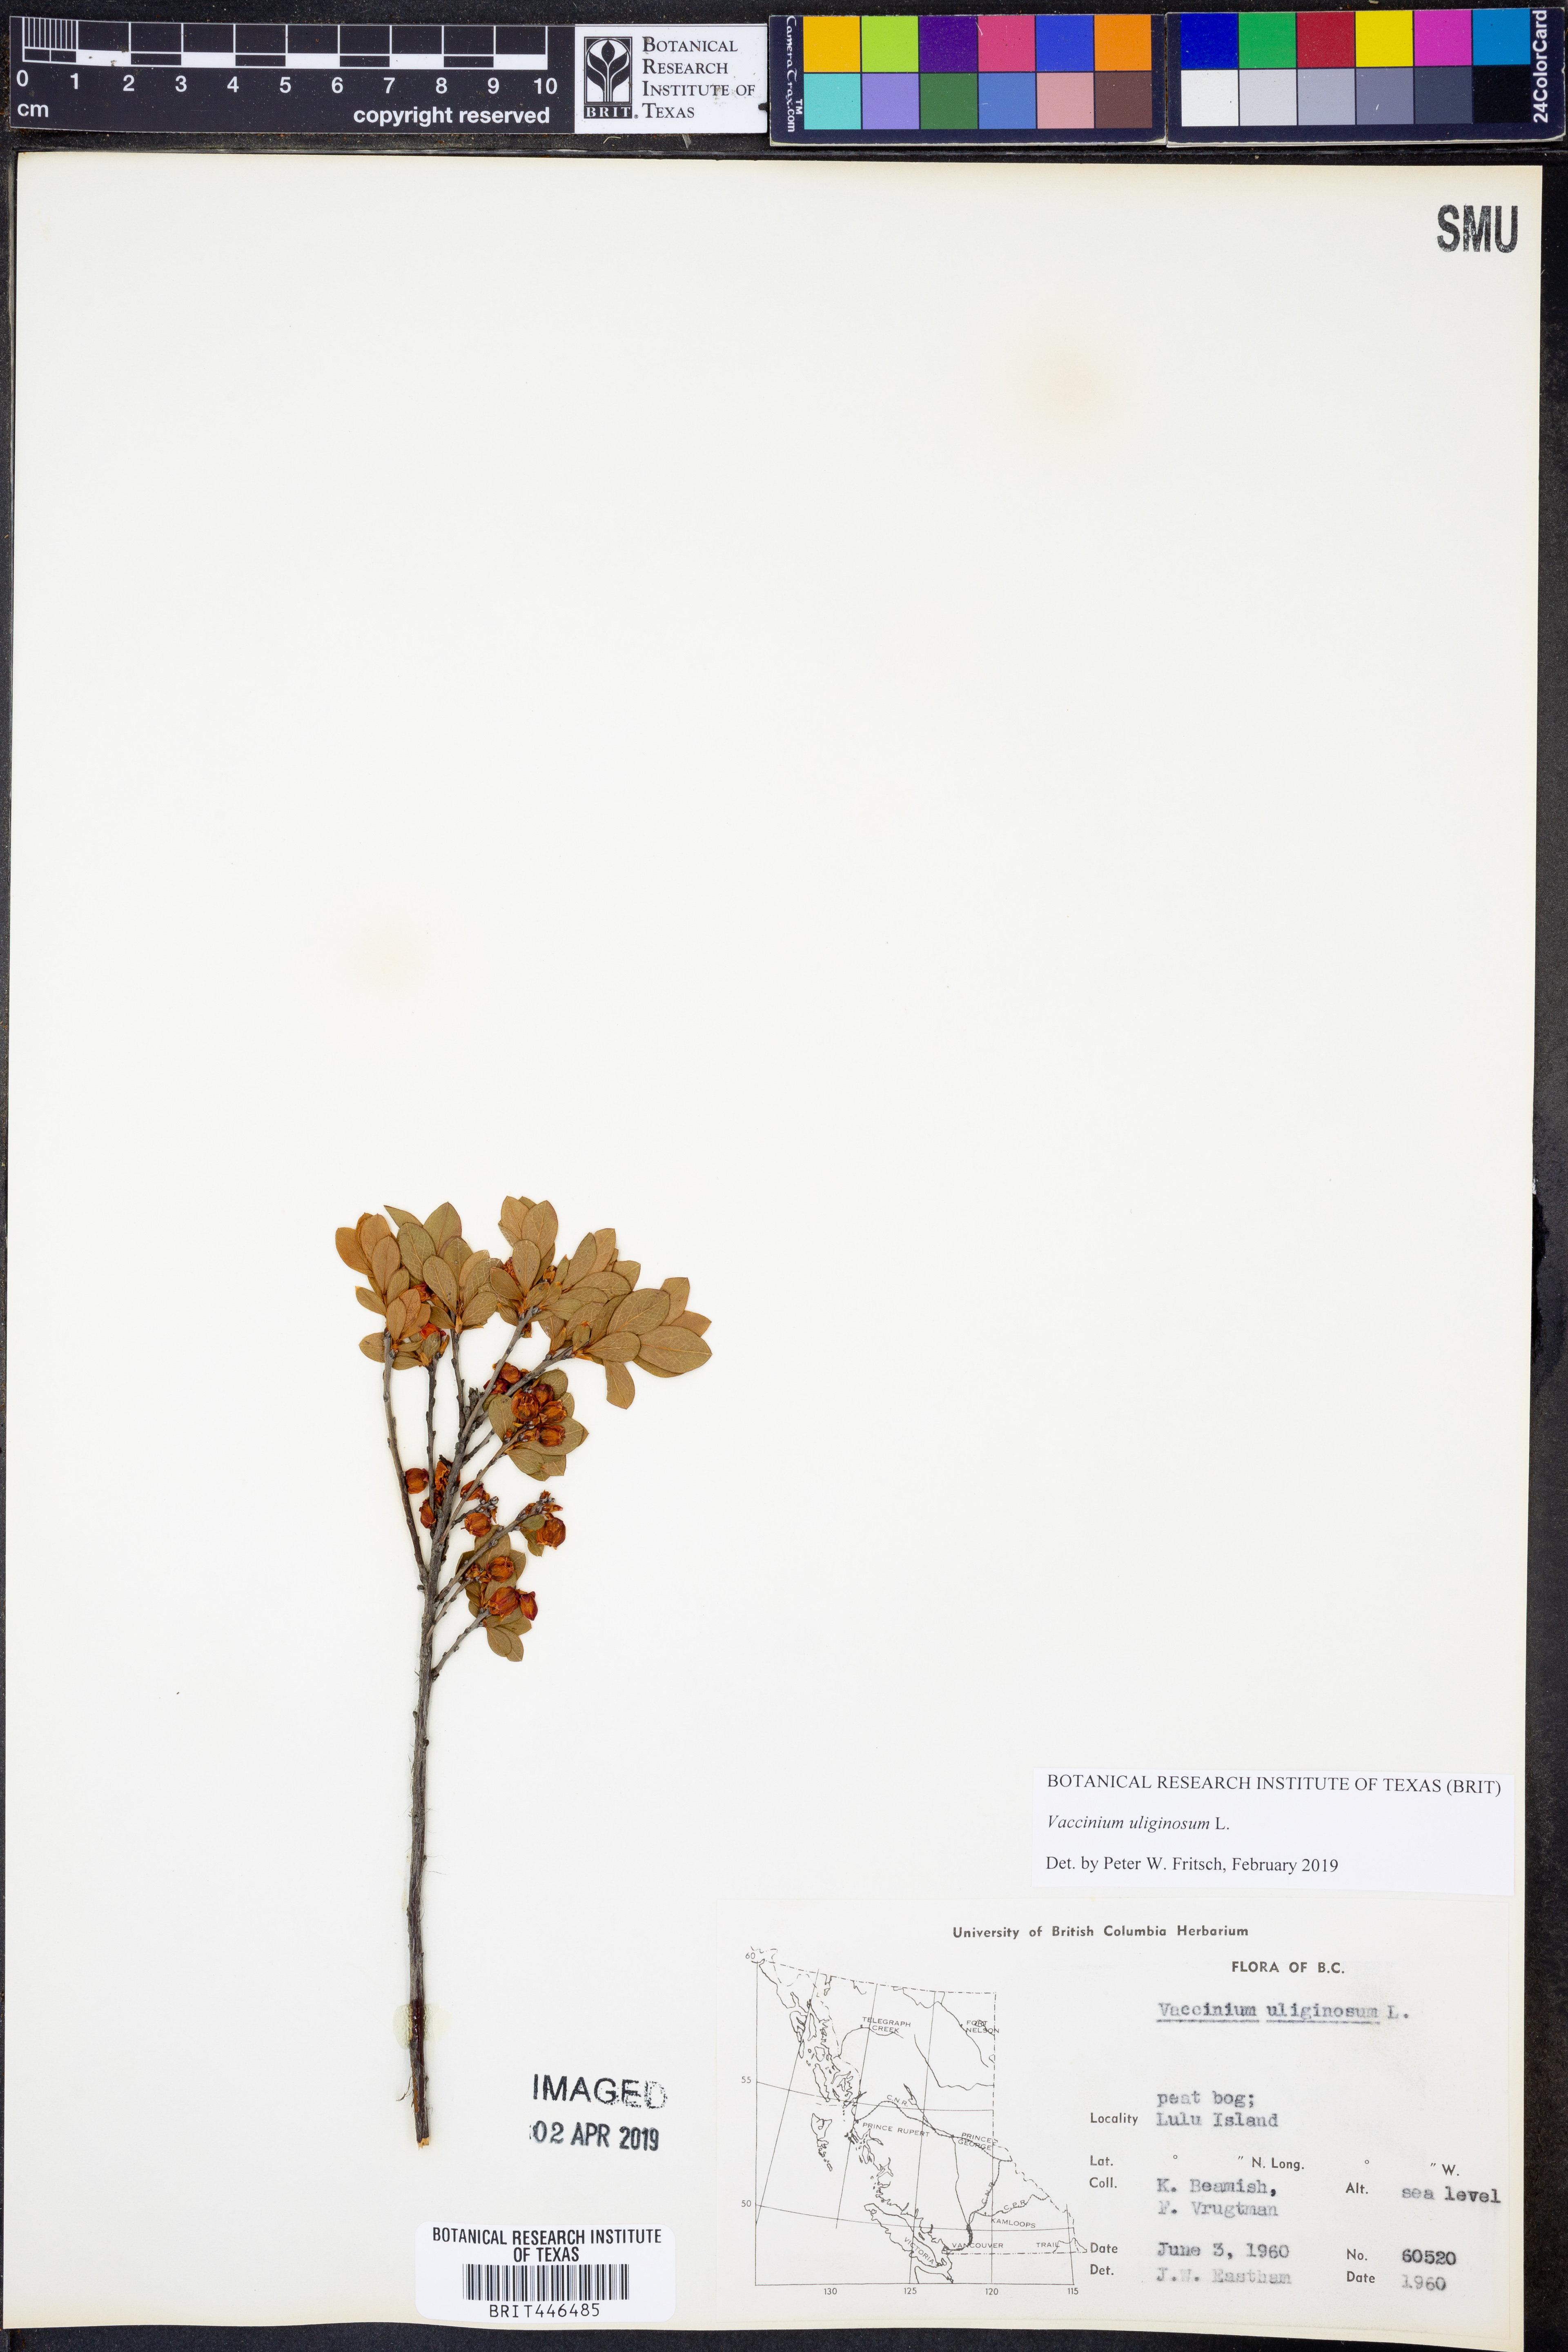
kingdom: Plantae
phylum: Tracheophyta
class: Magnoliopsida
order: Ericales
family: Ericaceae
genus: Vaccinium
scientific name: Vaccinium uliginosum
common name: Bog bilberry
